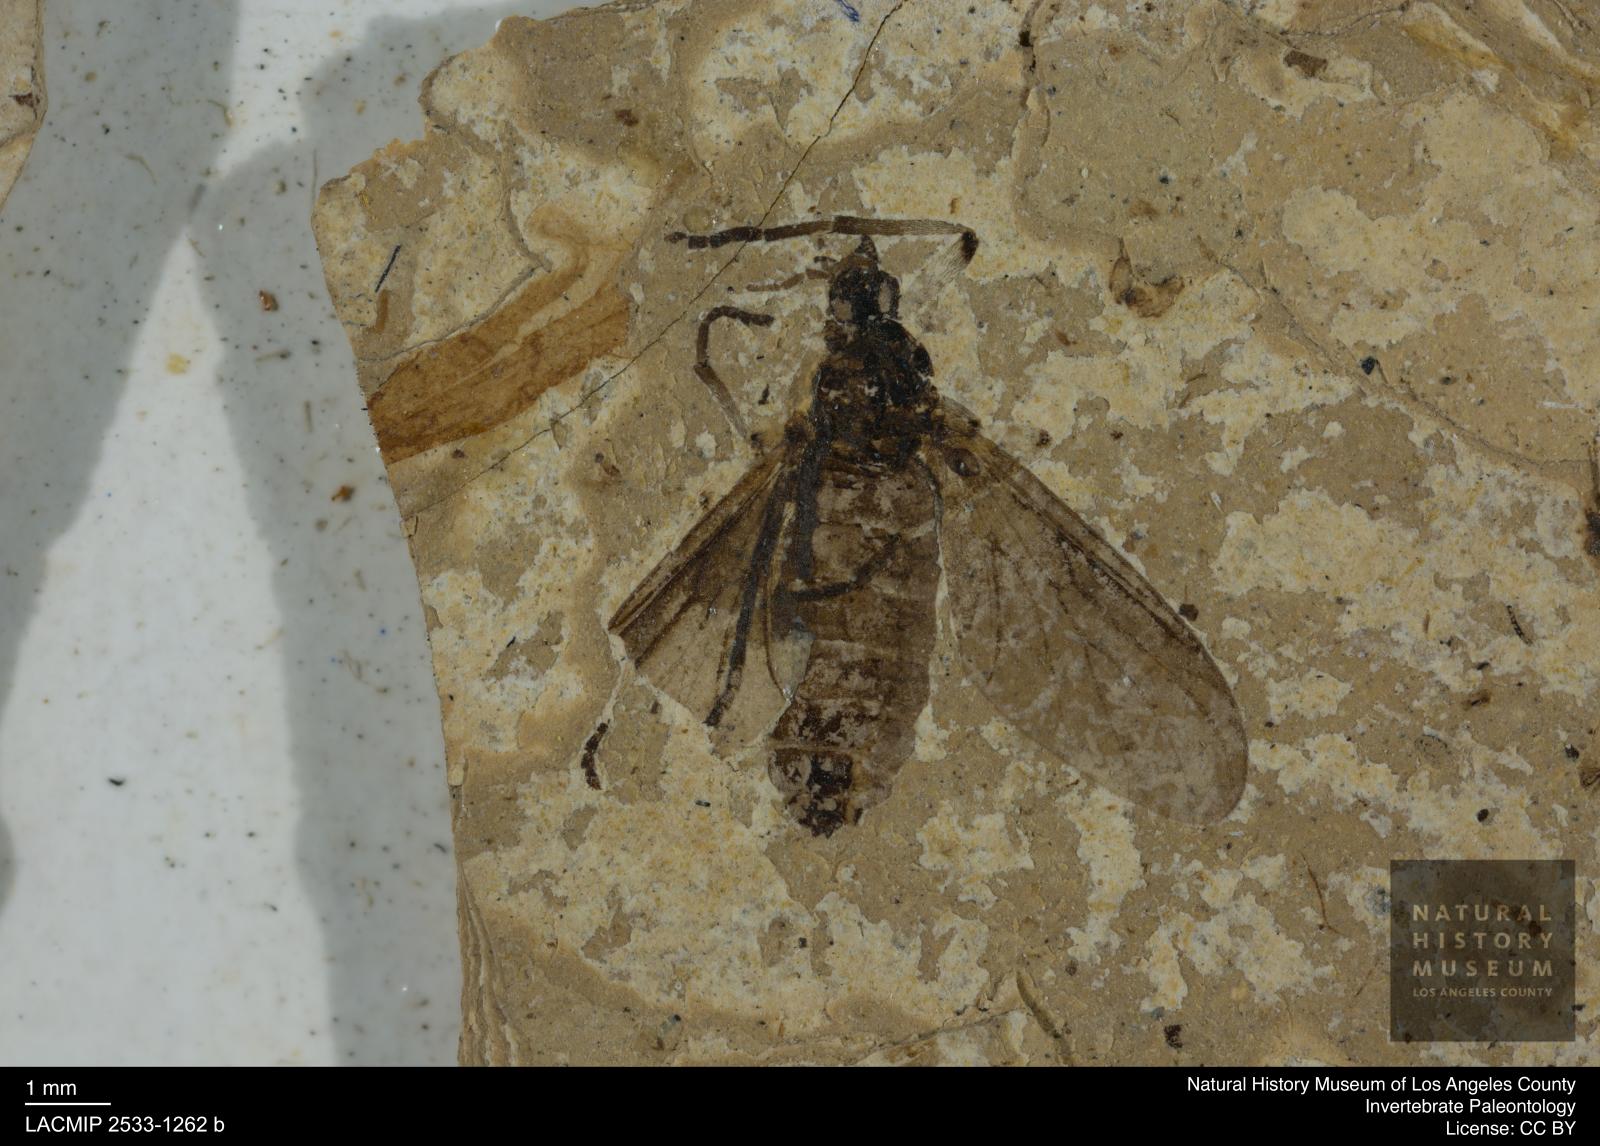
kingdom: Animalia
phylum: Arthropoda
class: Insecta
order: Diptera
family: Bibionidae
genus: Plecia
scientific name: Plecia
